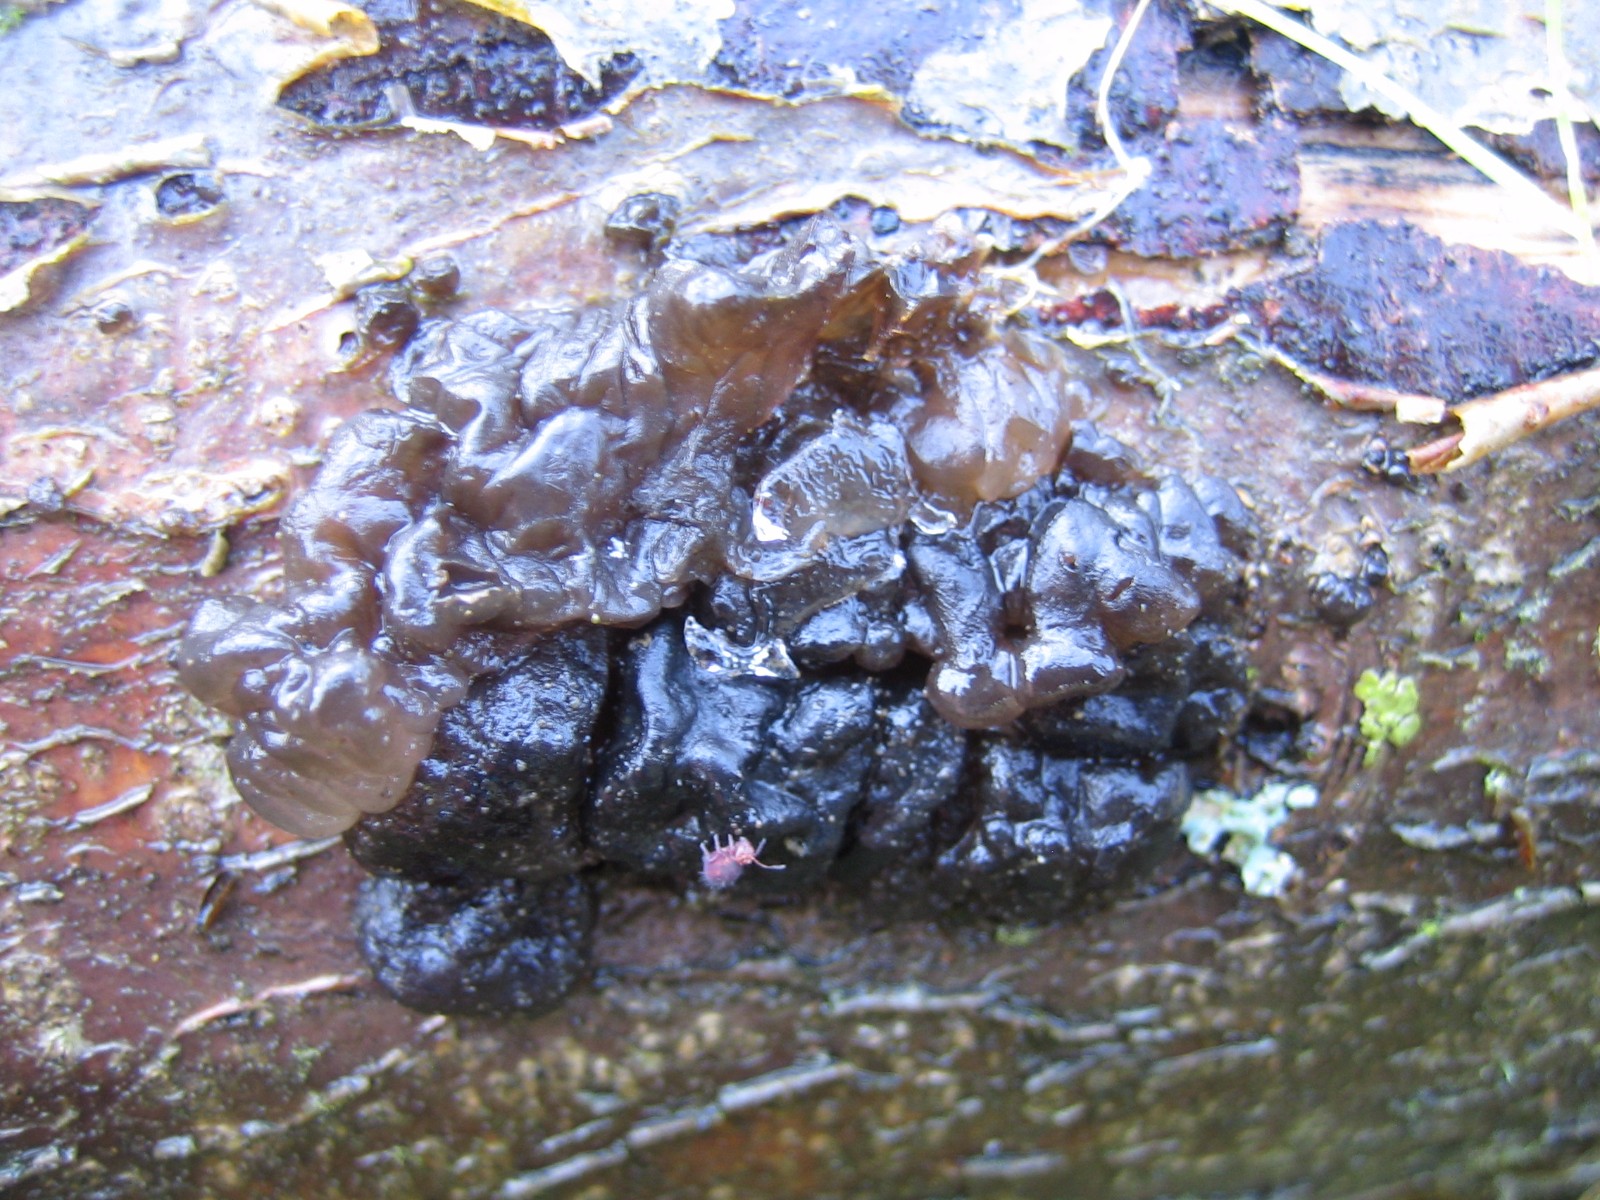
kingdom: Fungi
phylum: Basidiomycota
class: Agaricomycetes
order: Auriculariales
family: Auriculariaceae
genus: Exidia
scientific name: Exidia nigricans
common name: almindelig bævretop
